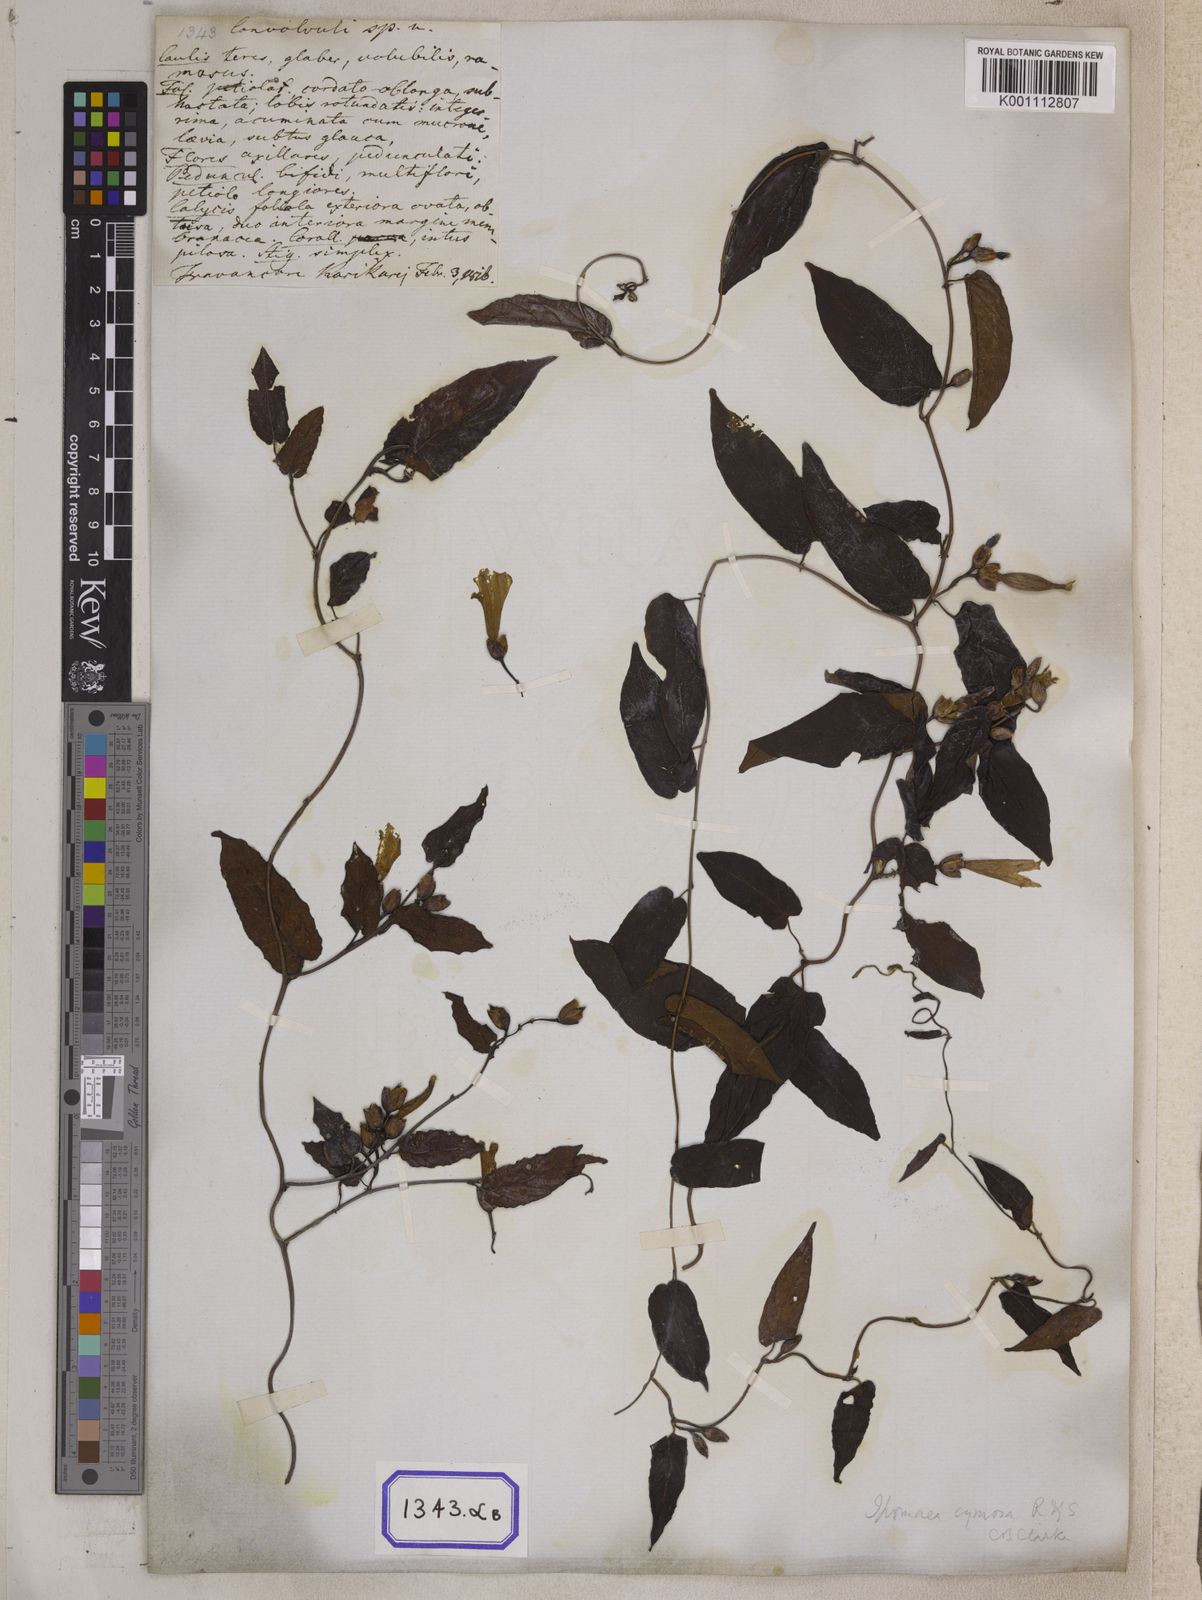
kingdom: Plantae
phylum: Tracheophyta
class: Magnoliopsida
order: Solanales
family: Convolvulaceae
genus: Camonea
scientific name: Camonea umbellata
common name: Hogvine
